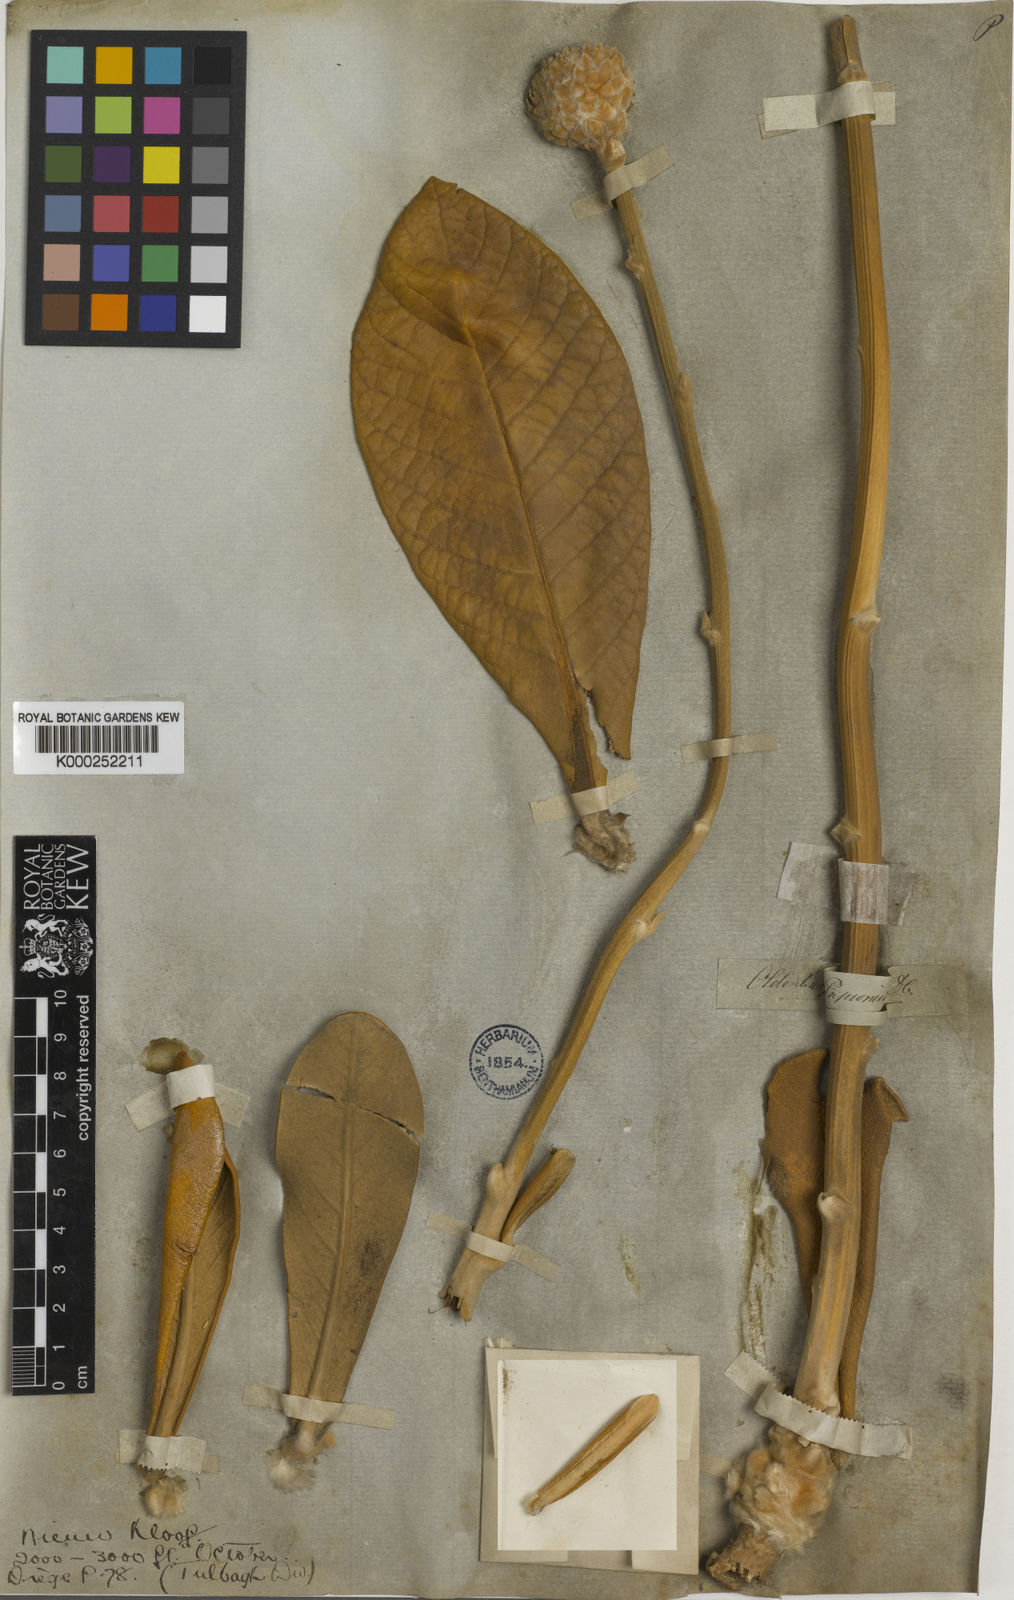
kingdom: Plantae
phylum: Tracheophyta
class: Magnoliopsida
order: Asterales
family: Asteraceae
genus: Oldenburgia
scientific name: Oldenburgia papionum
